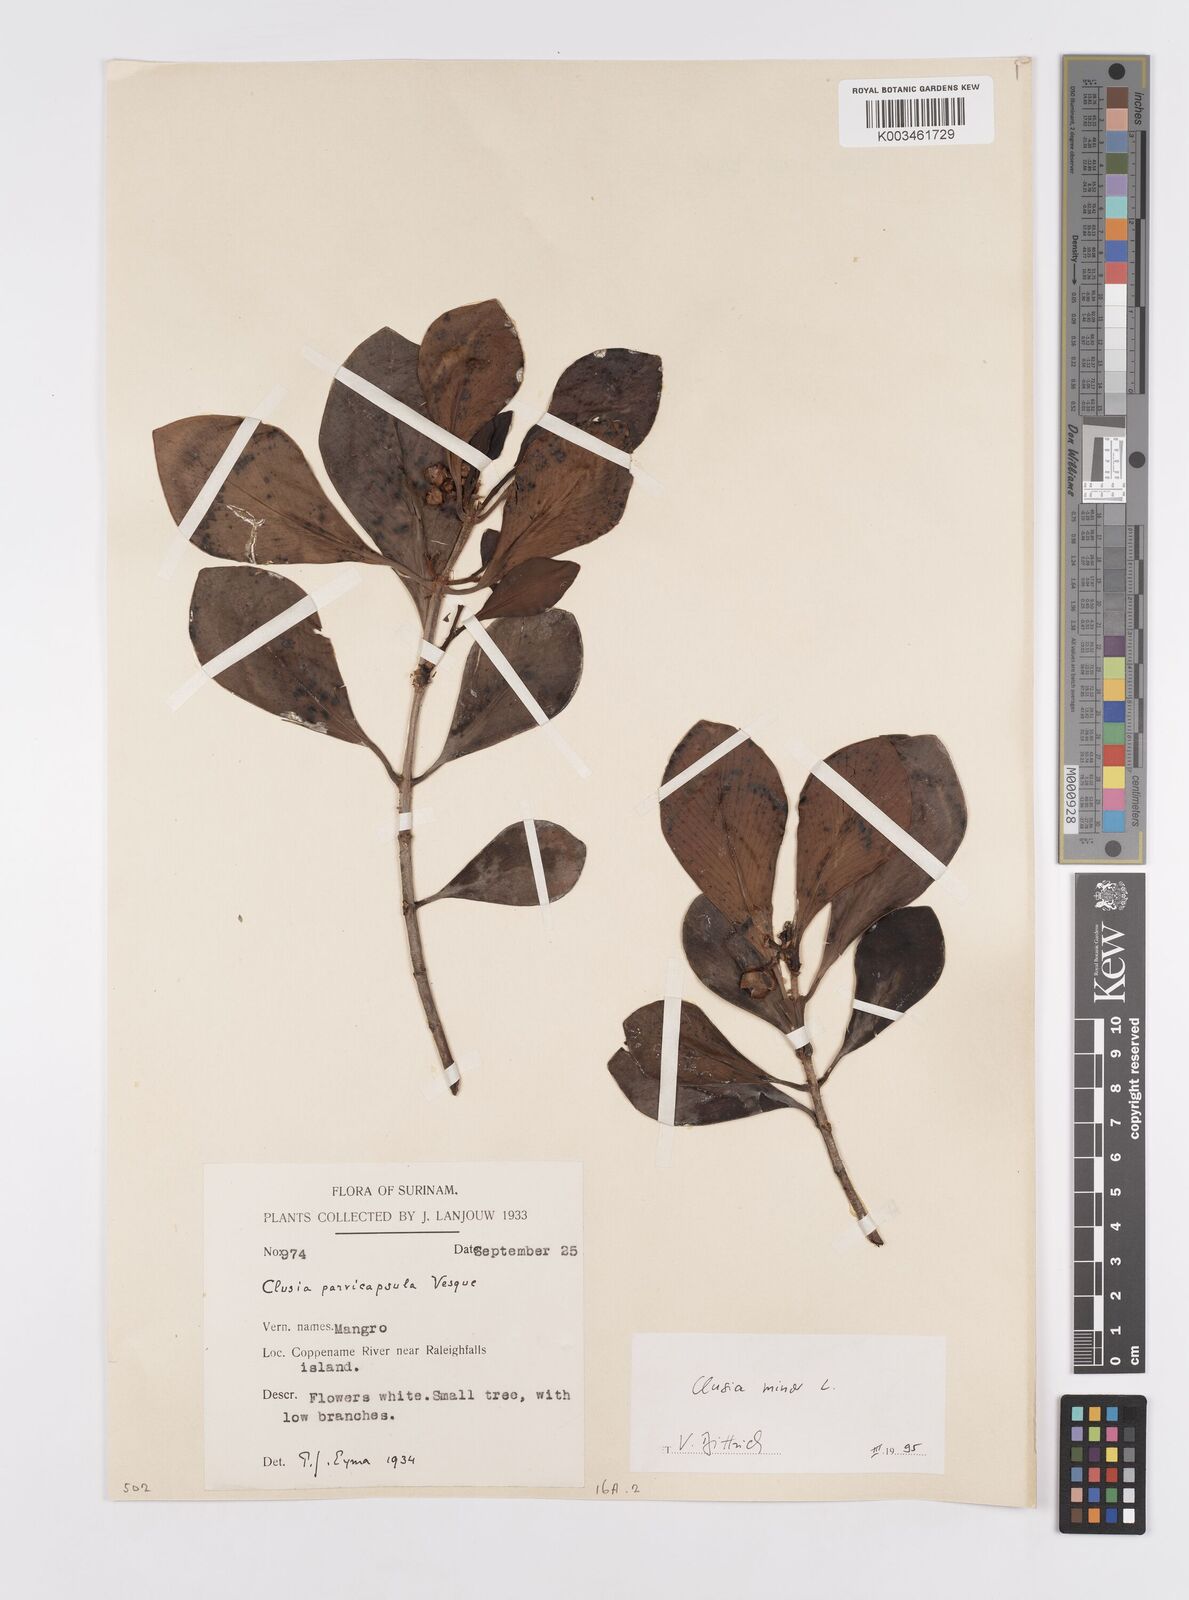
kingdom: Plantae
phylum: Tracheophyta
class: Magnoliopsida
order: Malpighiales
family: Clusiaceae
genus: Clusia
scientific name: Clusia minor
